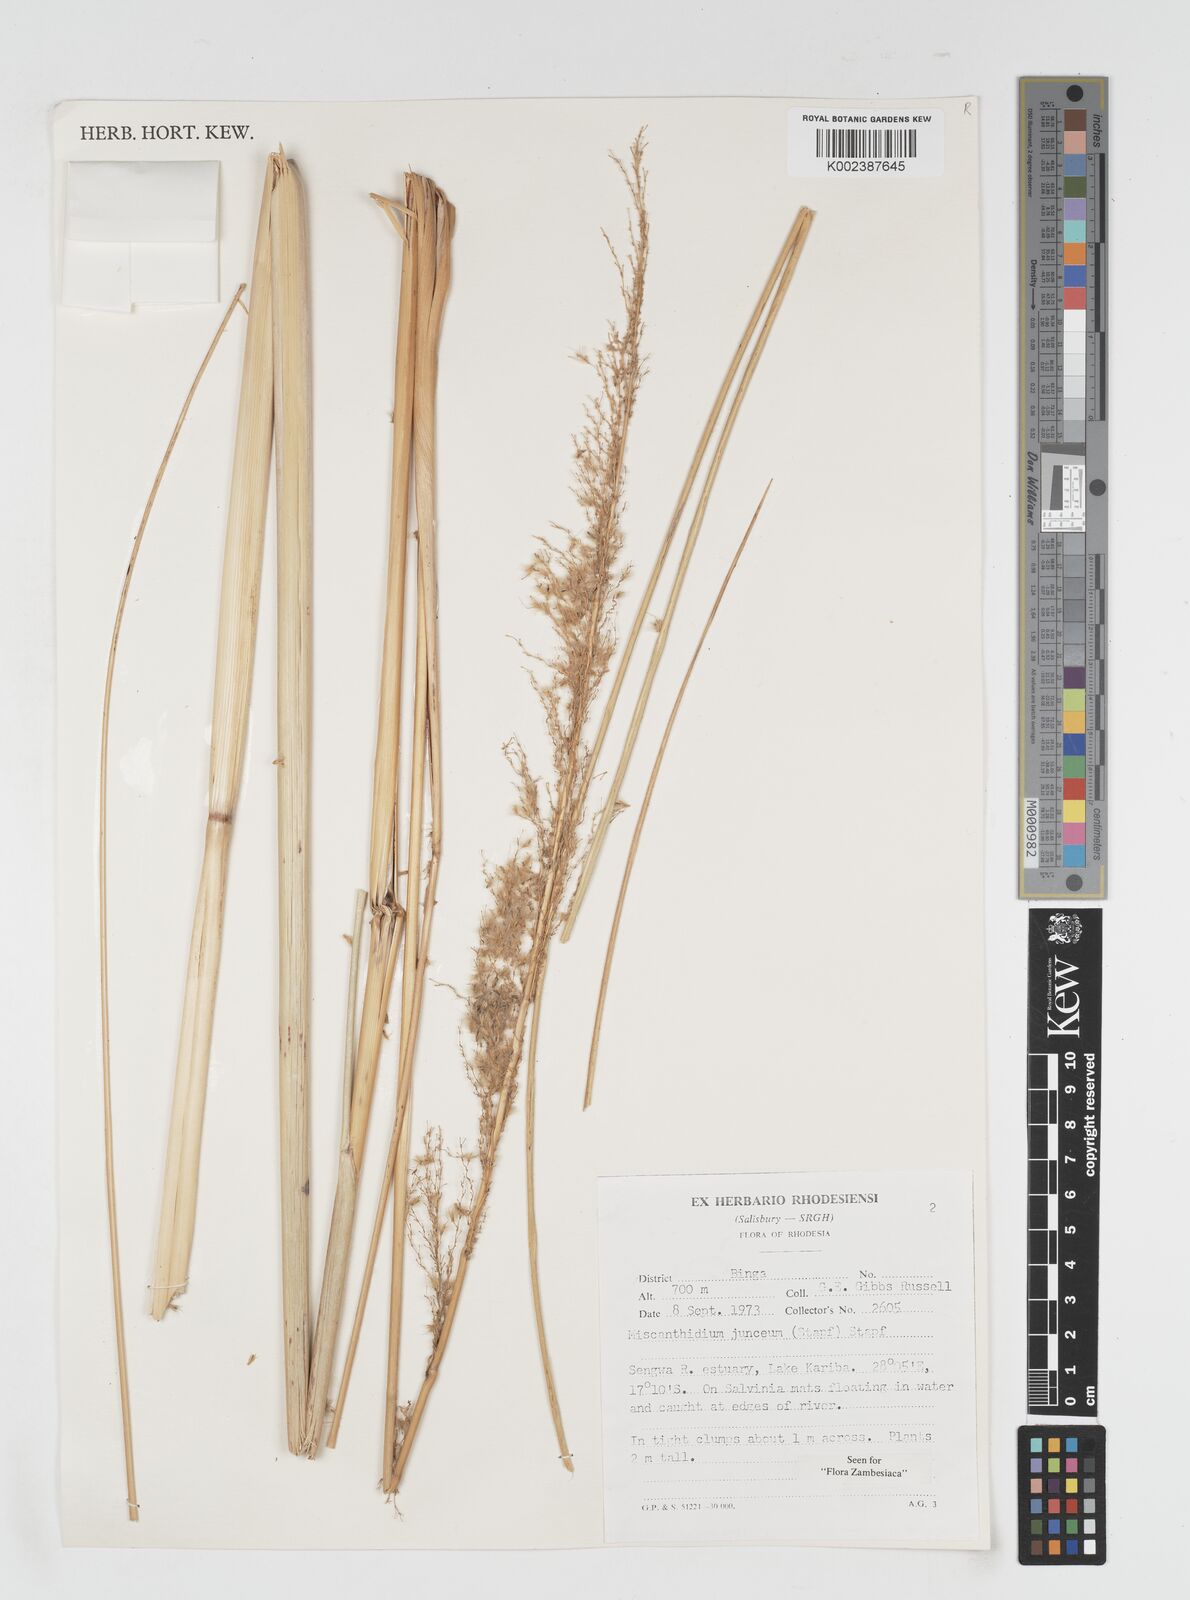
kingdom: Plantae
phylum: Tracheophyta
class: Liliopsida
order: Poales
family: Poaceae
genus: Miscanthidium
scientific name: Miscanthidium junceum
